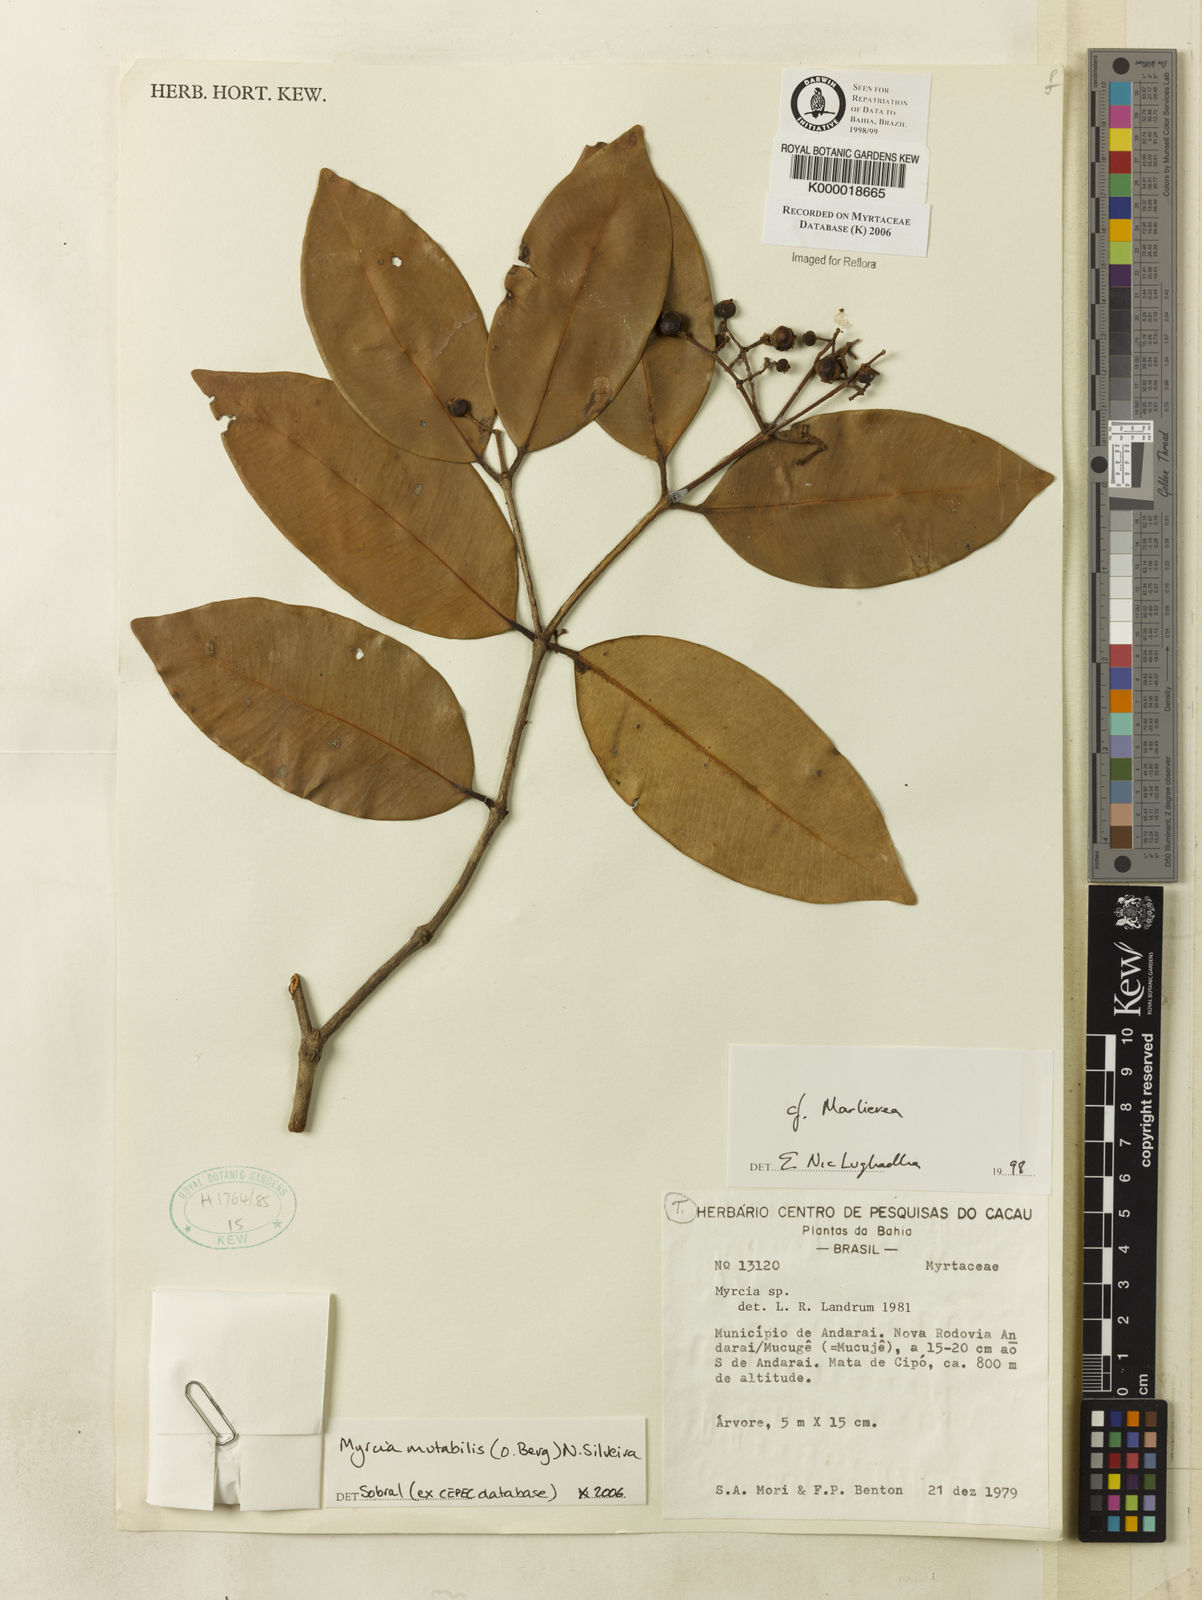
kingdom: Plantae
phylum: Tracheophyta
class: Magnoliopsida
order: Myrtales
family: Myrtaceae
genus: Marlierea
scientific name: Marlierea
